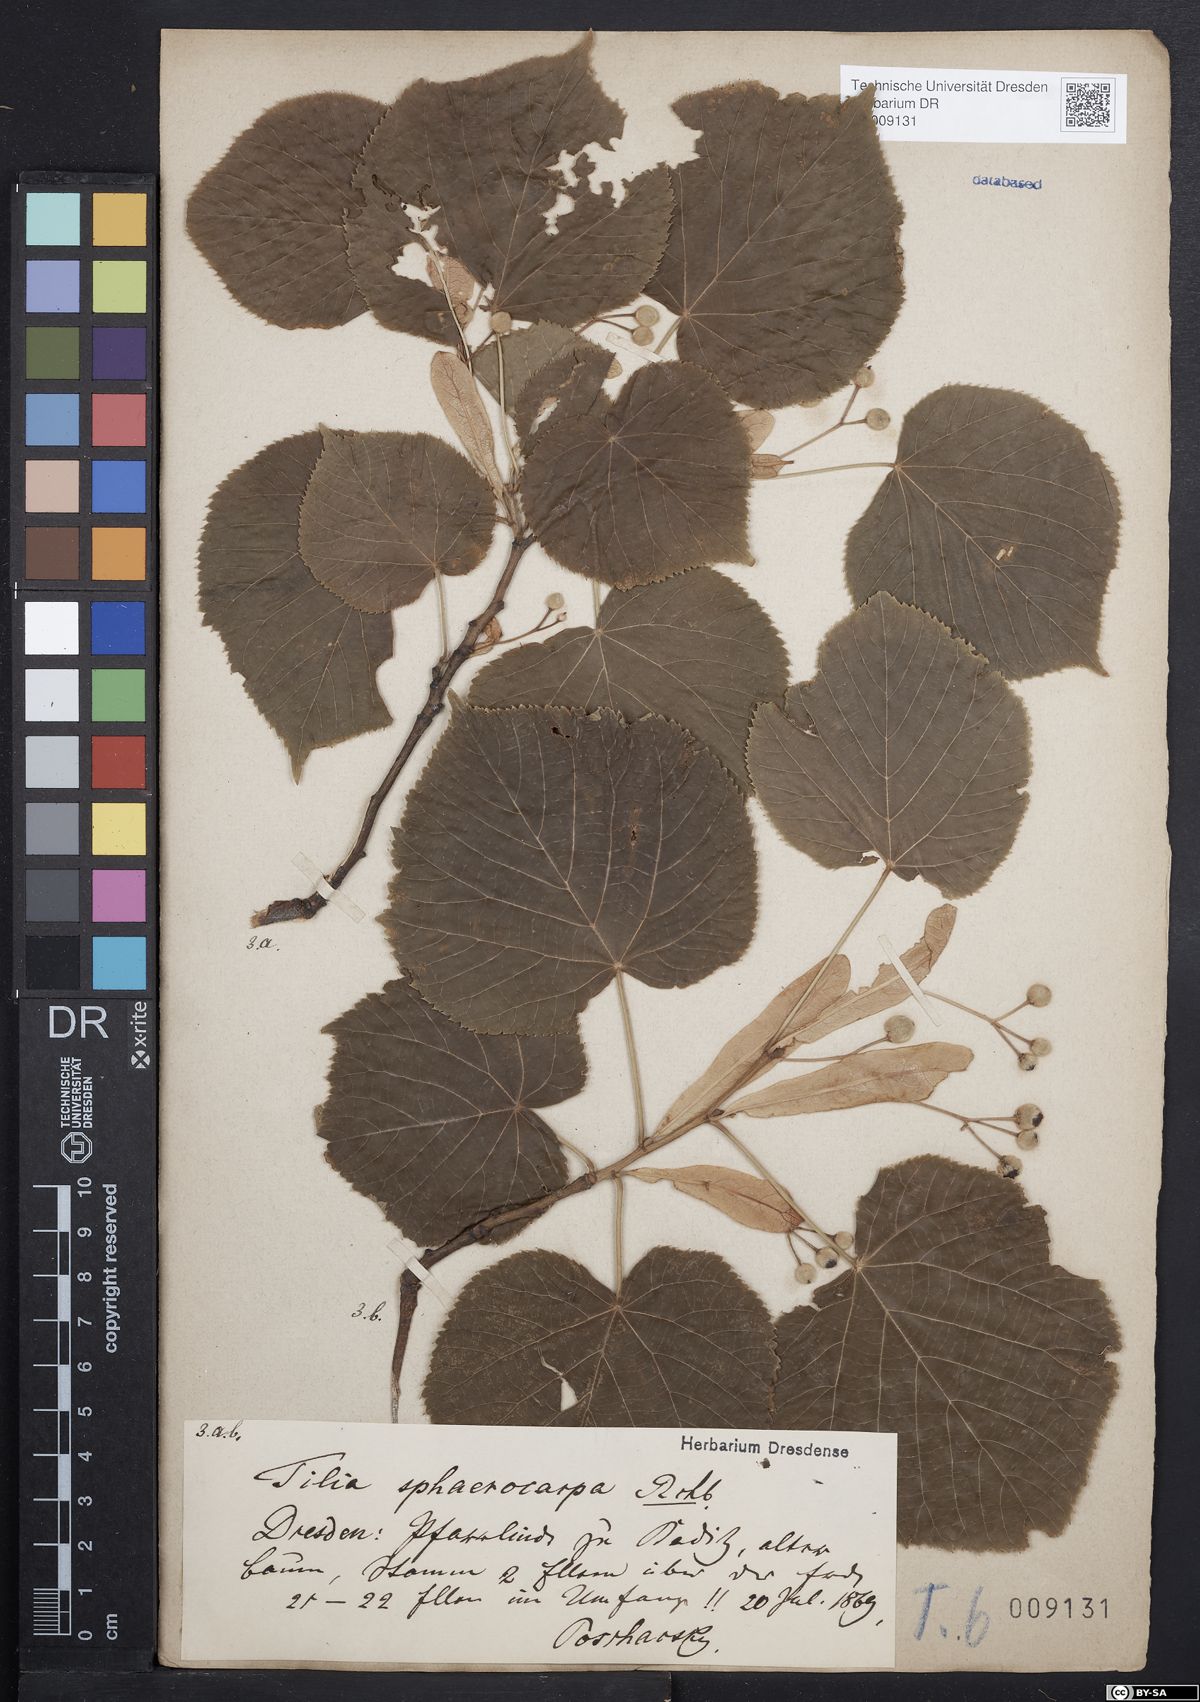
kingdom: Plantae
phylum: Tracheophyta
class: Magnoliopsida
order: Malvales
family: Malvaceae
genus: Tilia
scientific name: Tilia platyphyllos
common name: Large-leaved lime
